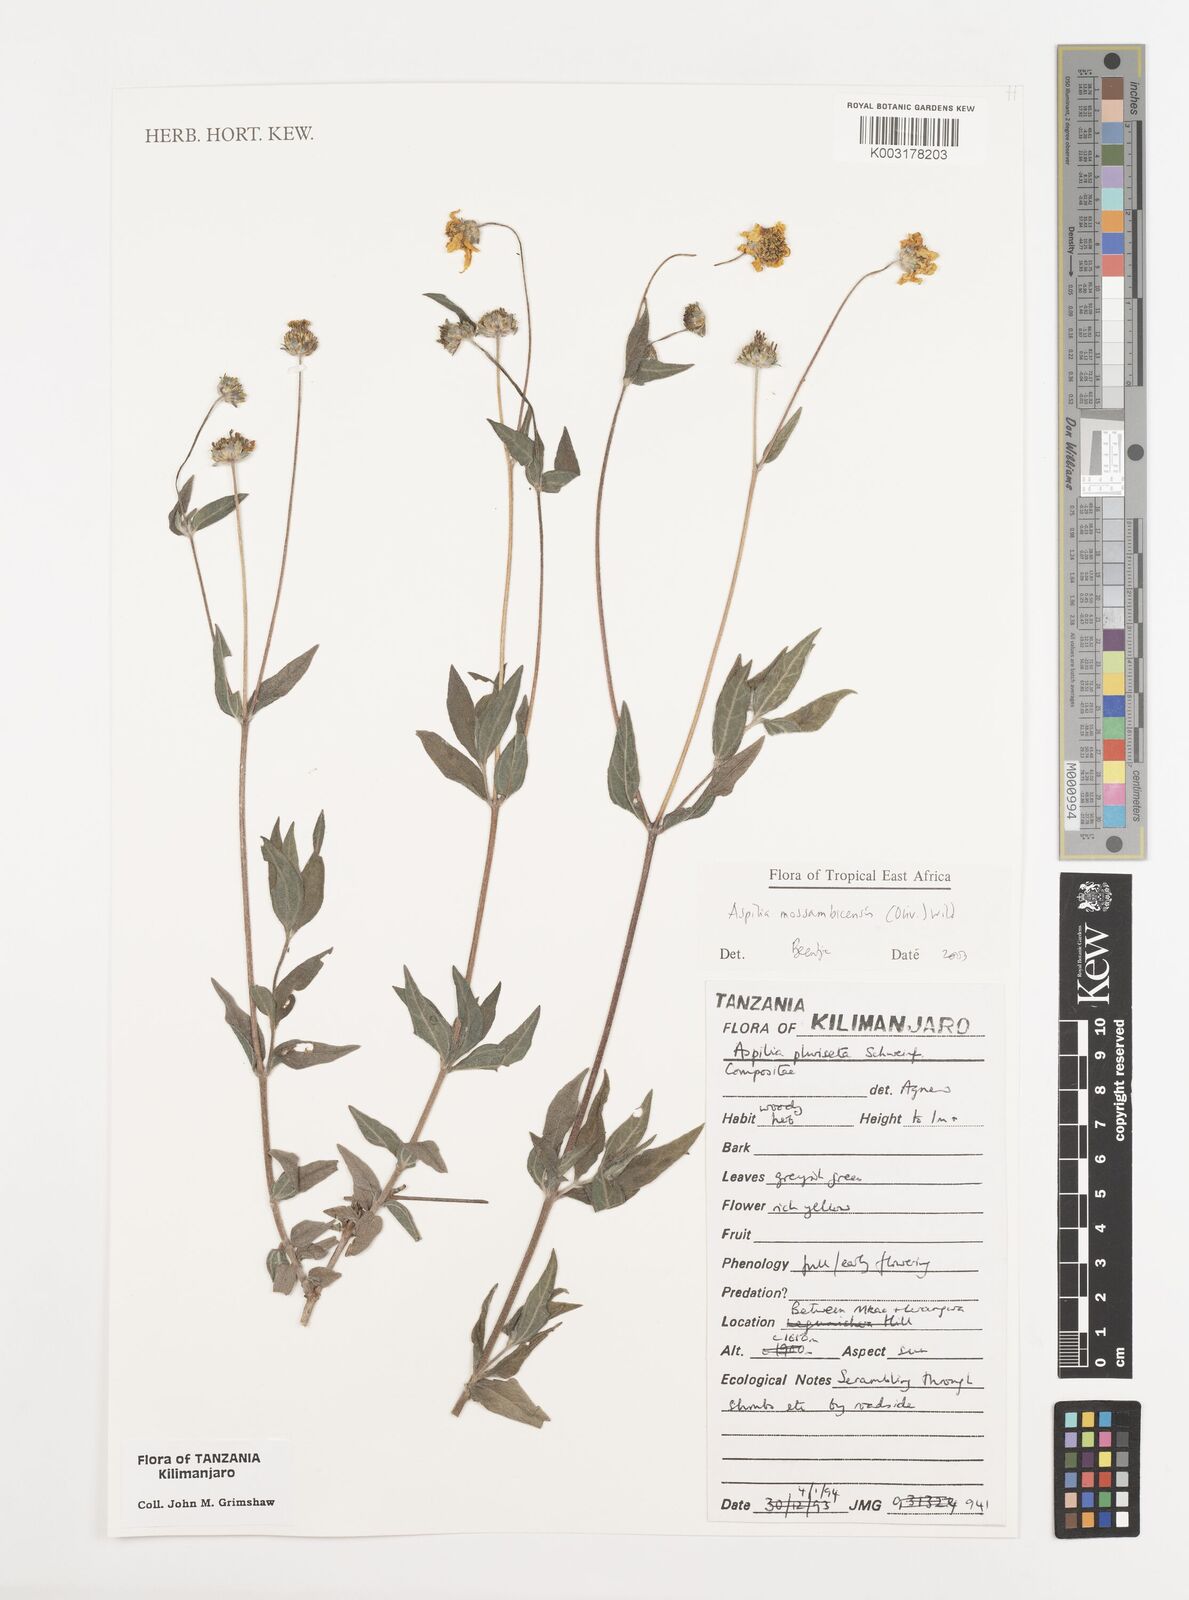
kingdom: Plantae
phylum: Tracheophyta
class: Magnoliopsida
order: Asterales
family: Asteraceae
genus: Aspilia
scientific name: Aspilia mossambicensis
